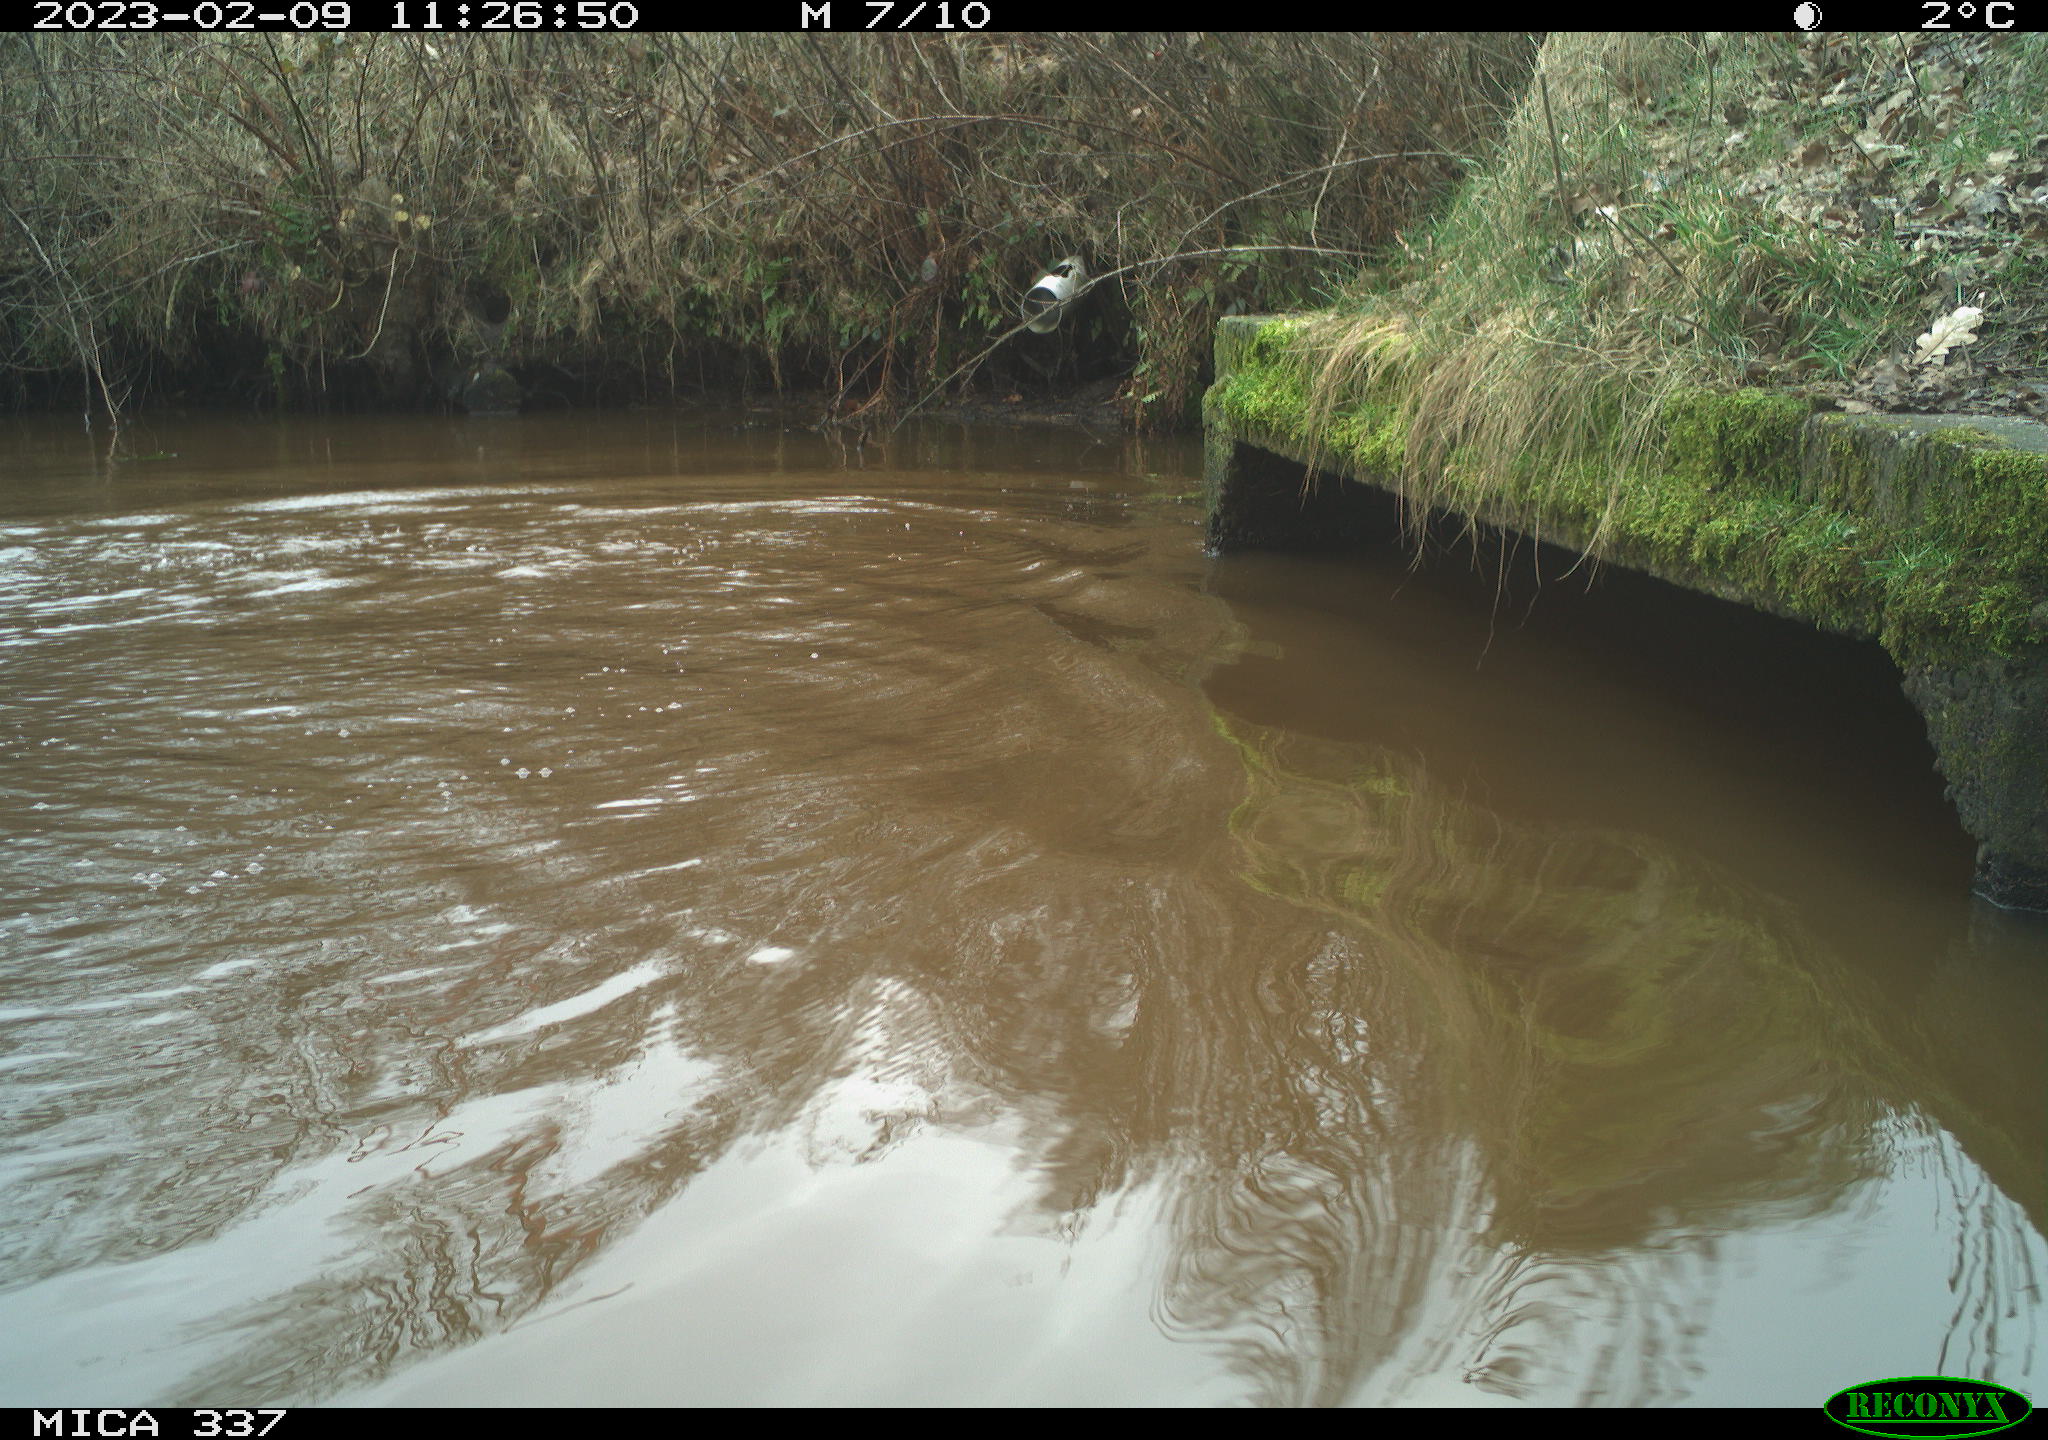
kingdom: Animalia
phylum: Chordata
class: Aves
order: Anseriformes
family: Anatidae
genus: Anas
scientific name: Anas
